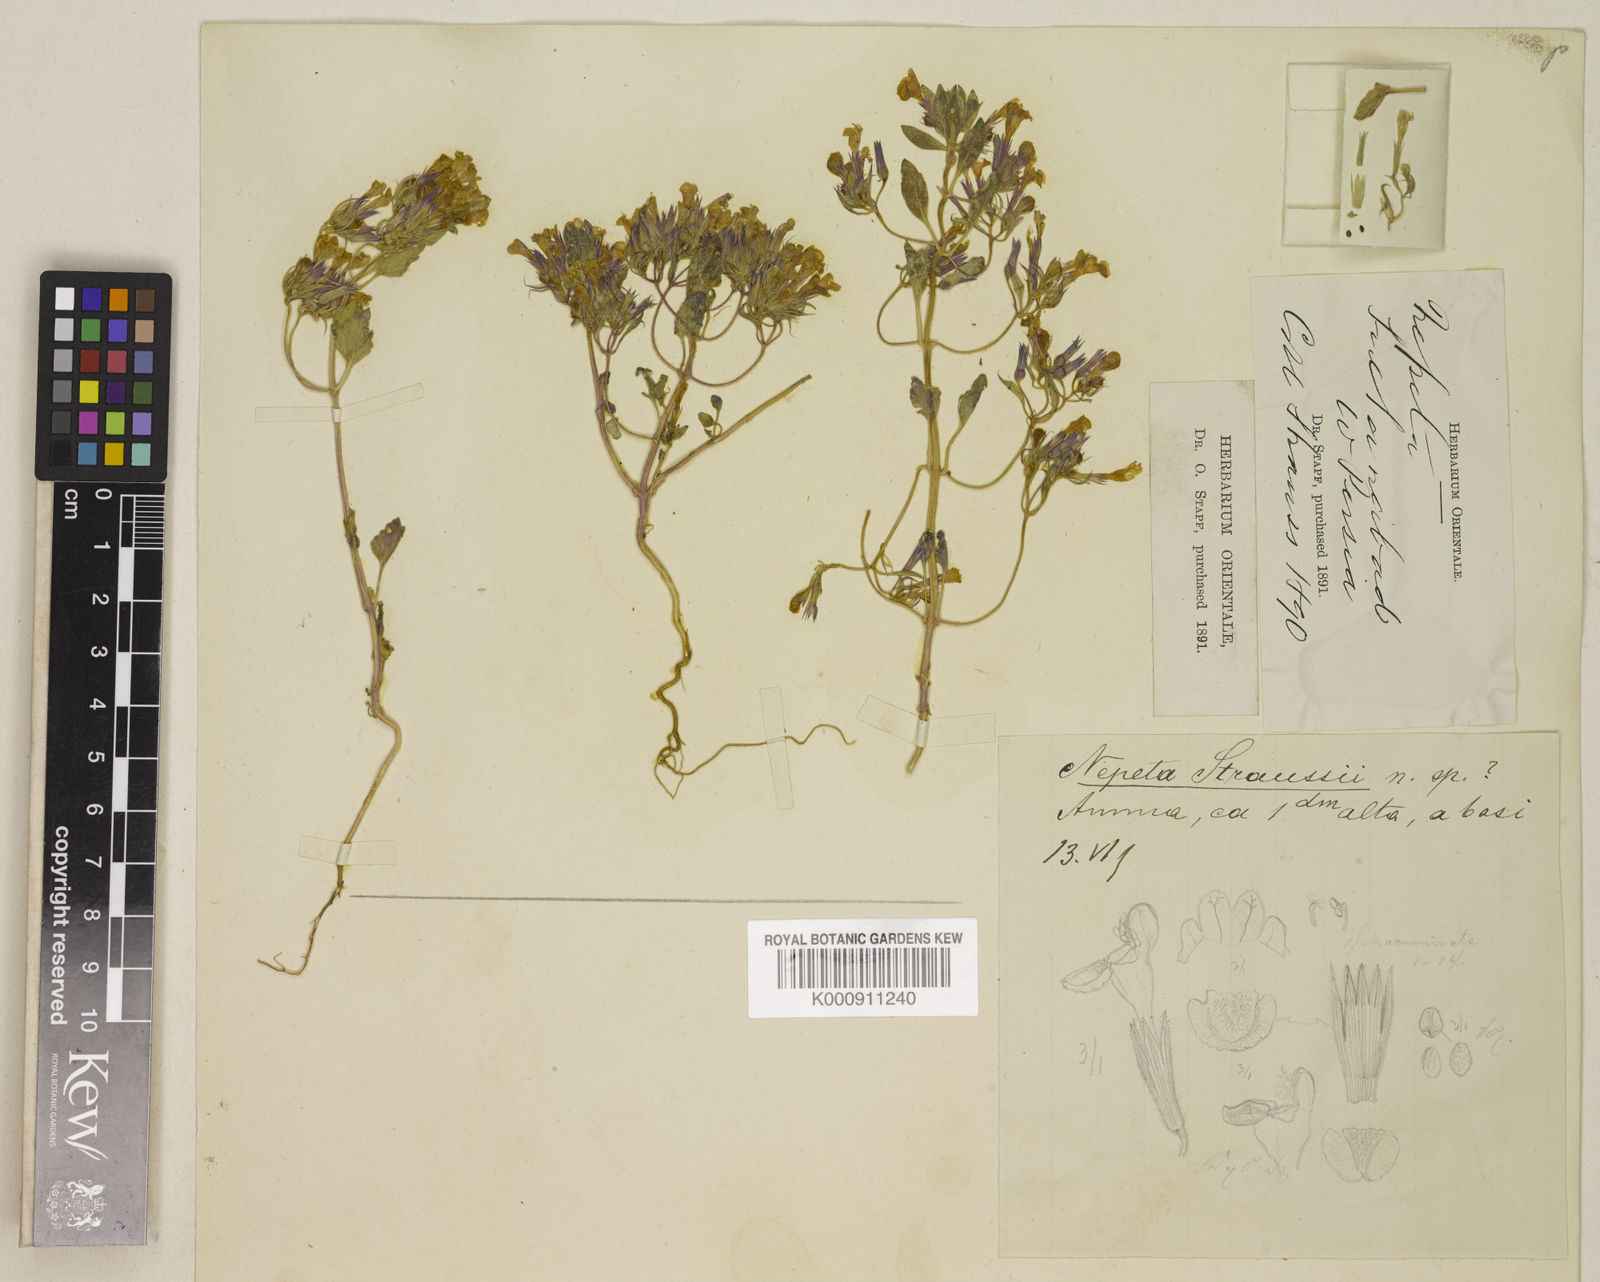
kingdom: Plantae
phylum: Tracheophyta
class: Magnoliopsida
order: Lamiales
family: Lamiaceae
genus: Nepeta
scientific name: Nepeta straussii
